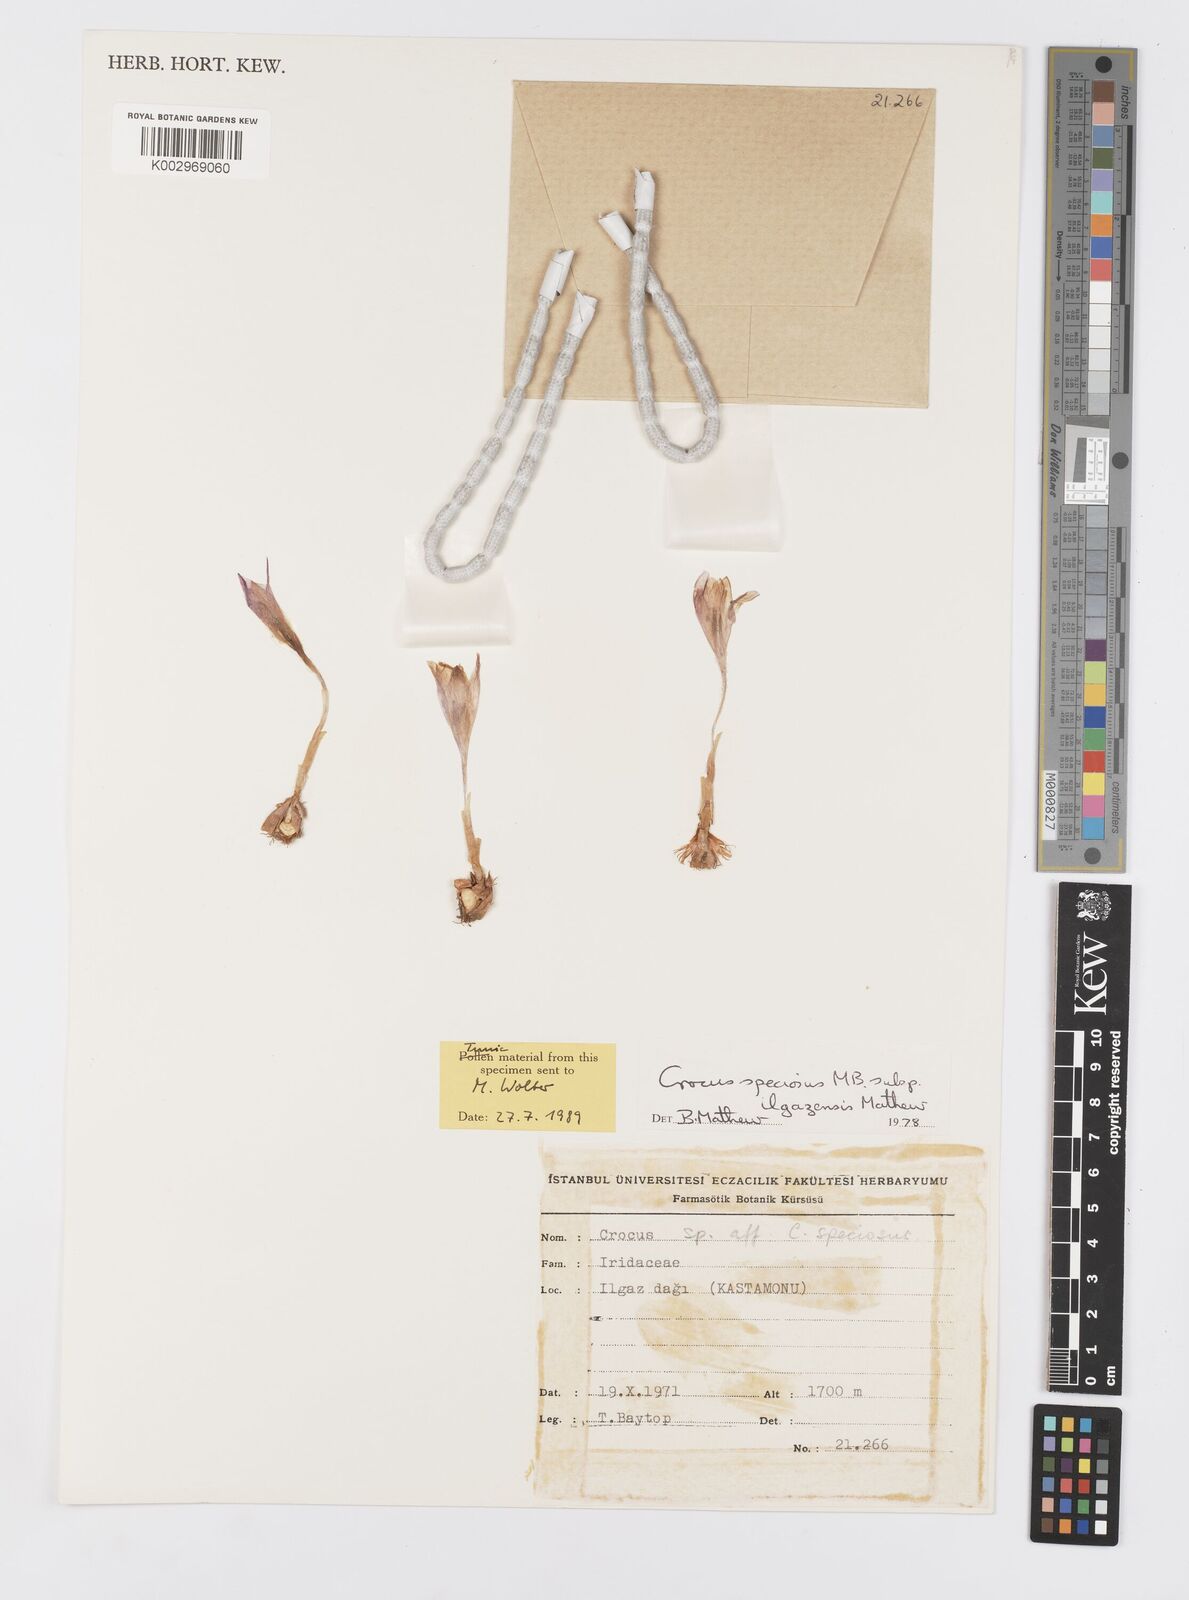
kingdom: Plantae
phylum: Tracheophyta
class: Liliopsida
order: Asparagales
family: Iridaceae
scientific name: Iridaceae
